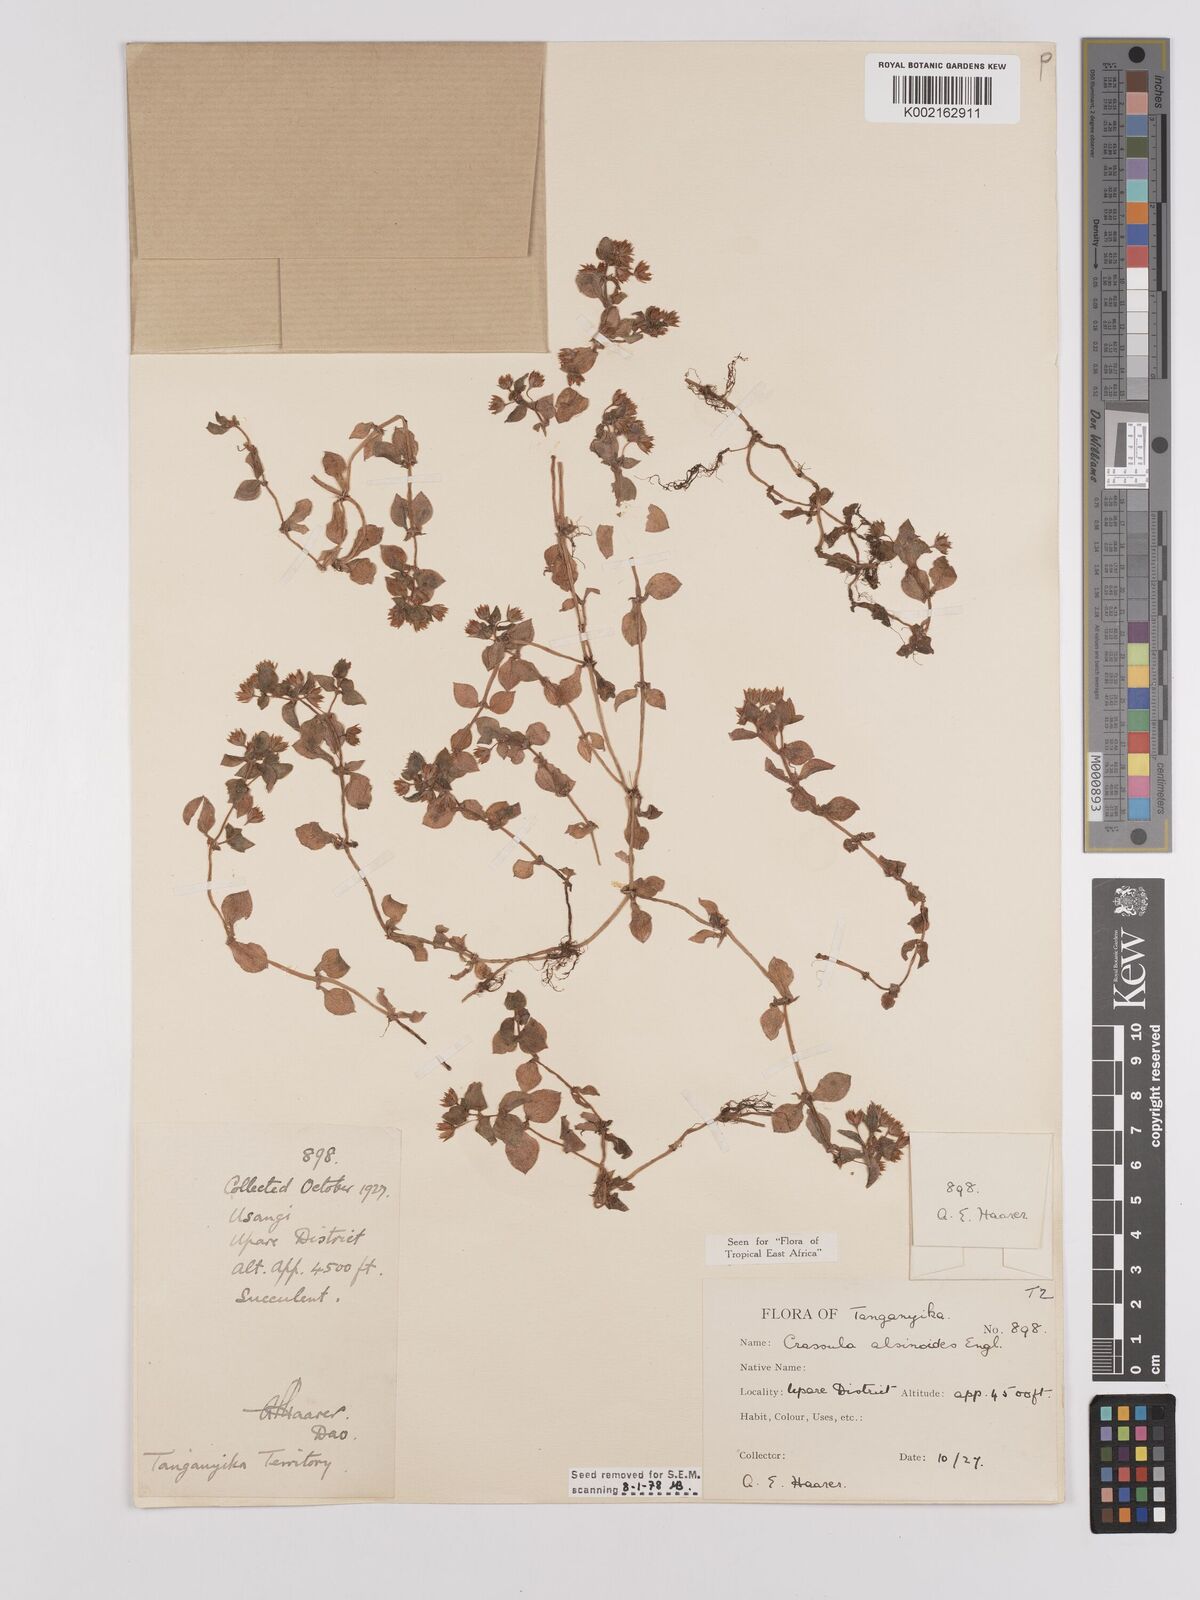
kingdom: Plantae
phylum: Tracheophyta
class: Magnoliopsida
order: Saxifragales
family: Crassulaceae
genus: Crassula
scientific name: Crassula alsinoides
